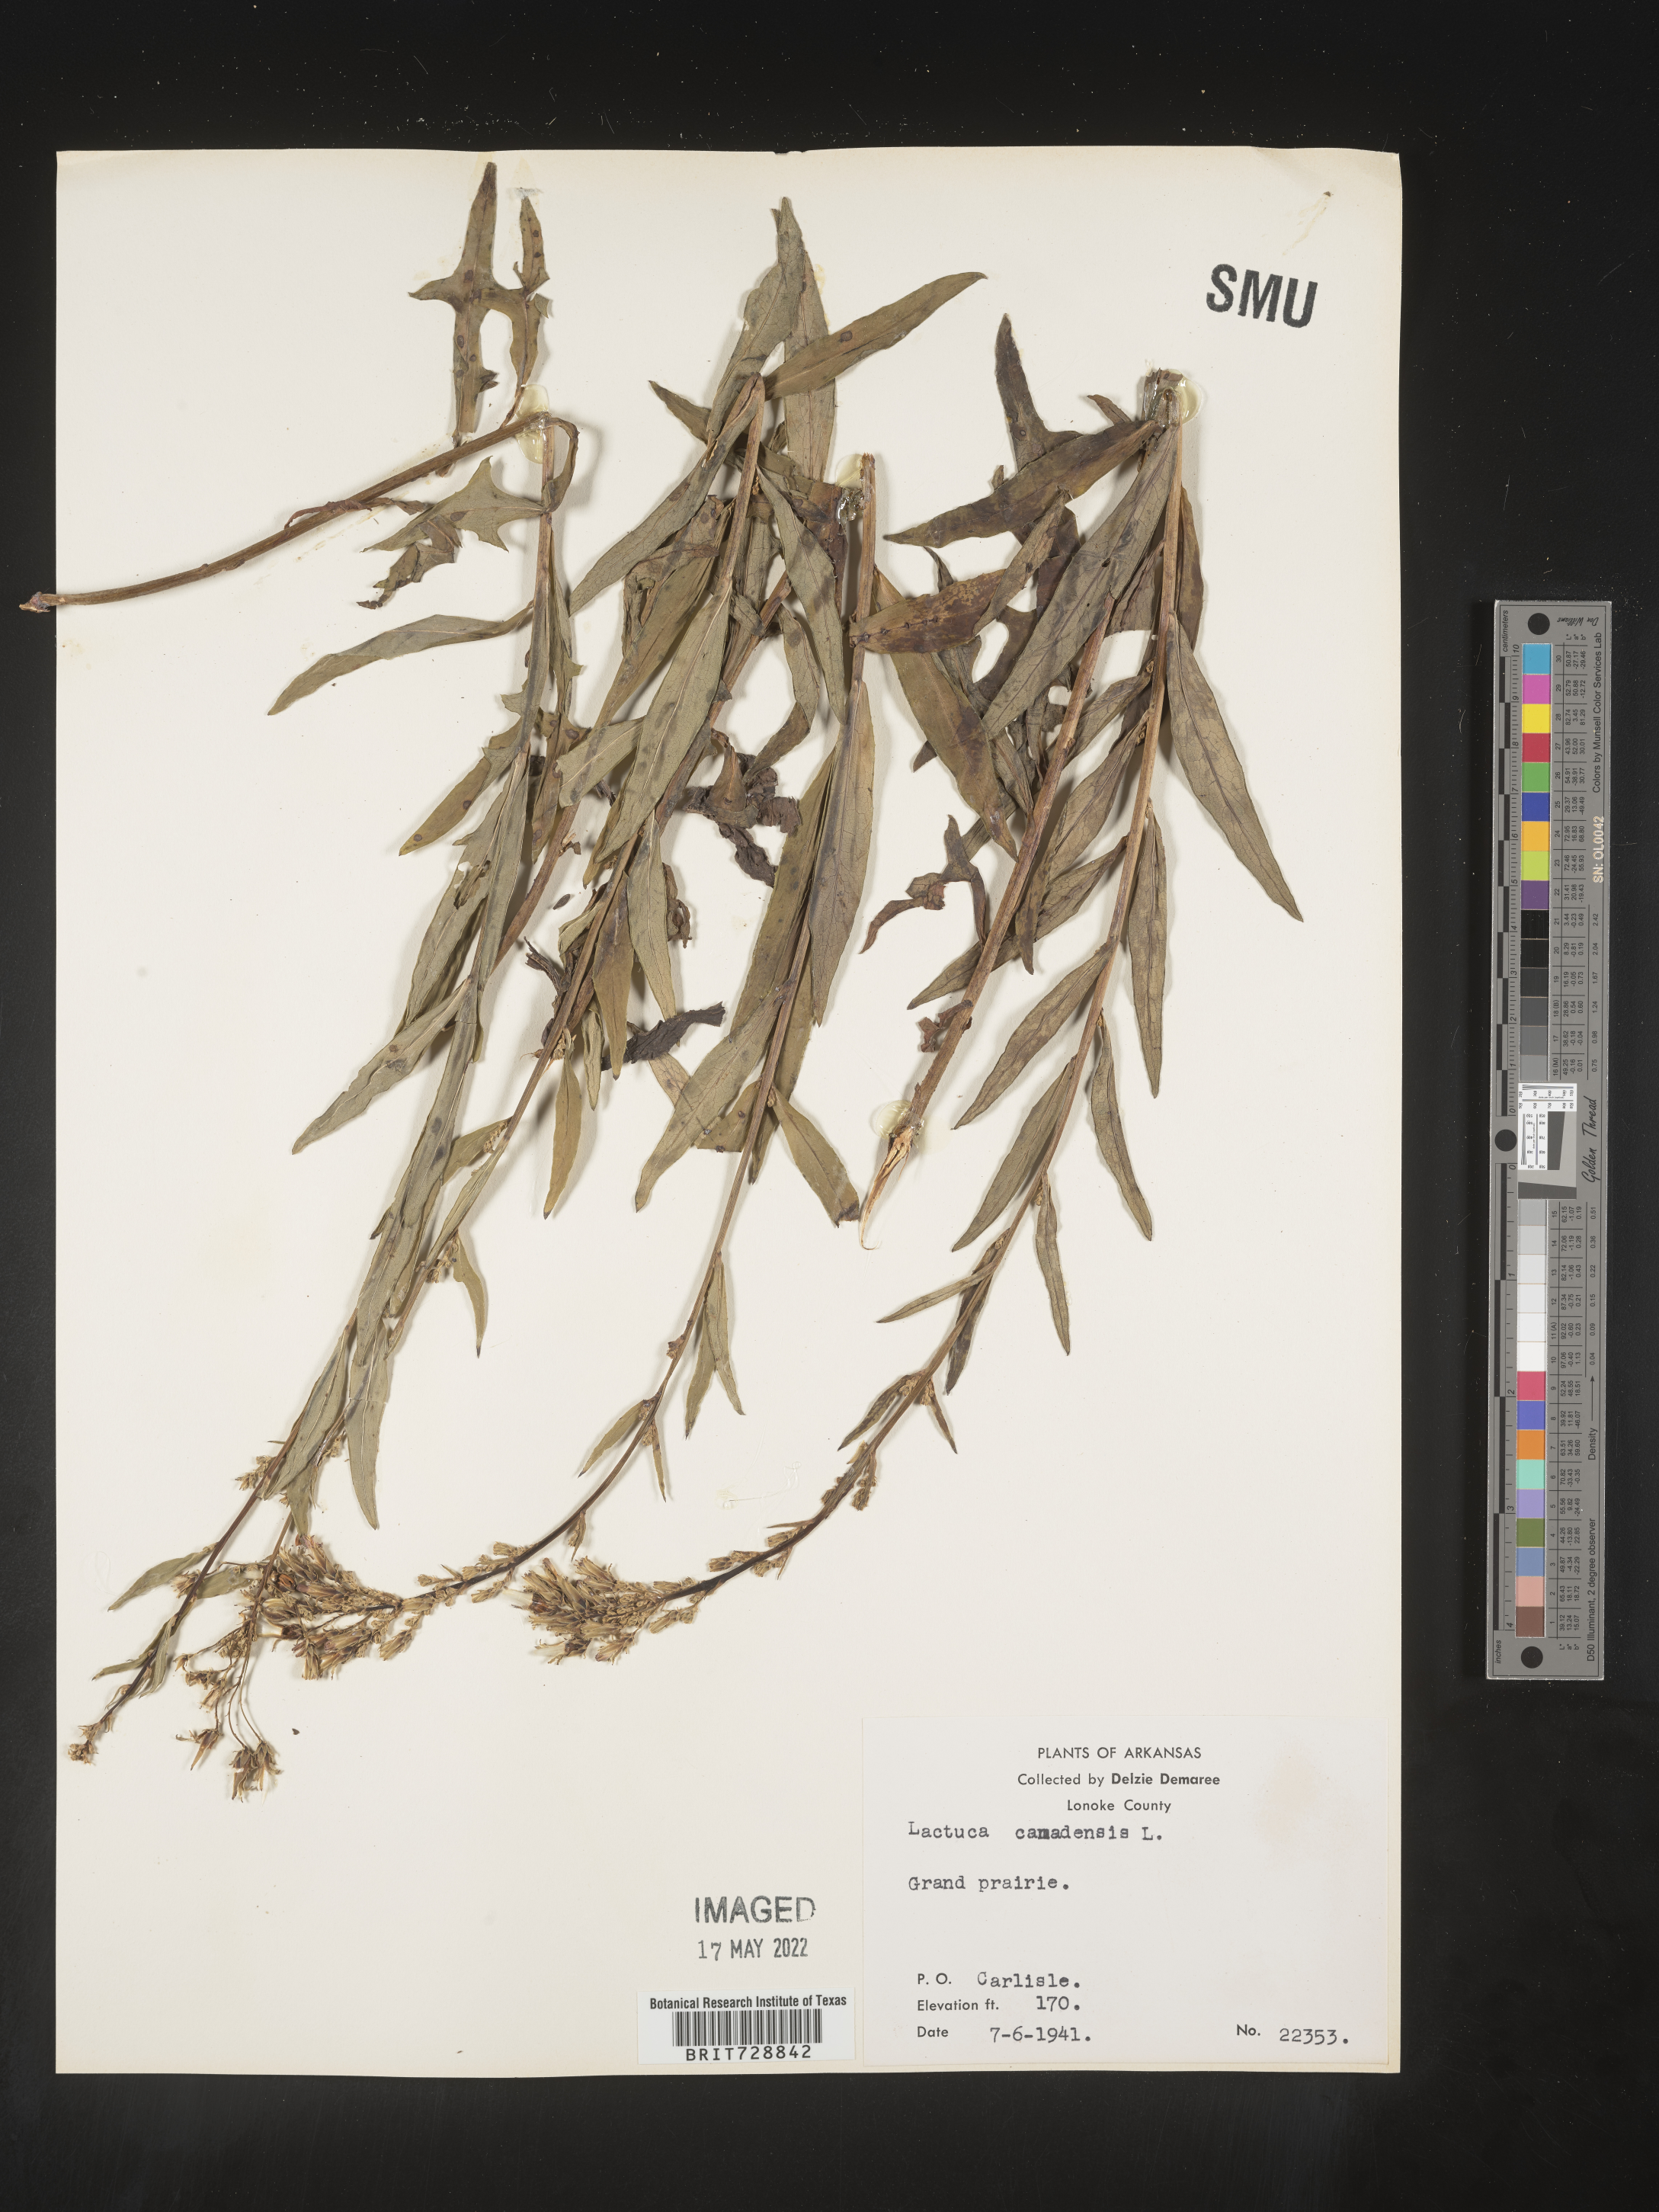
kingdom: Plantae
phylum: Tracheophyta
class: Magnoliopsida
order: Asterales
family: Asteraceae
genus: Lactuca
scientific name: Lactuca canadensis
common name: Canada lettuce
